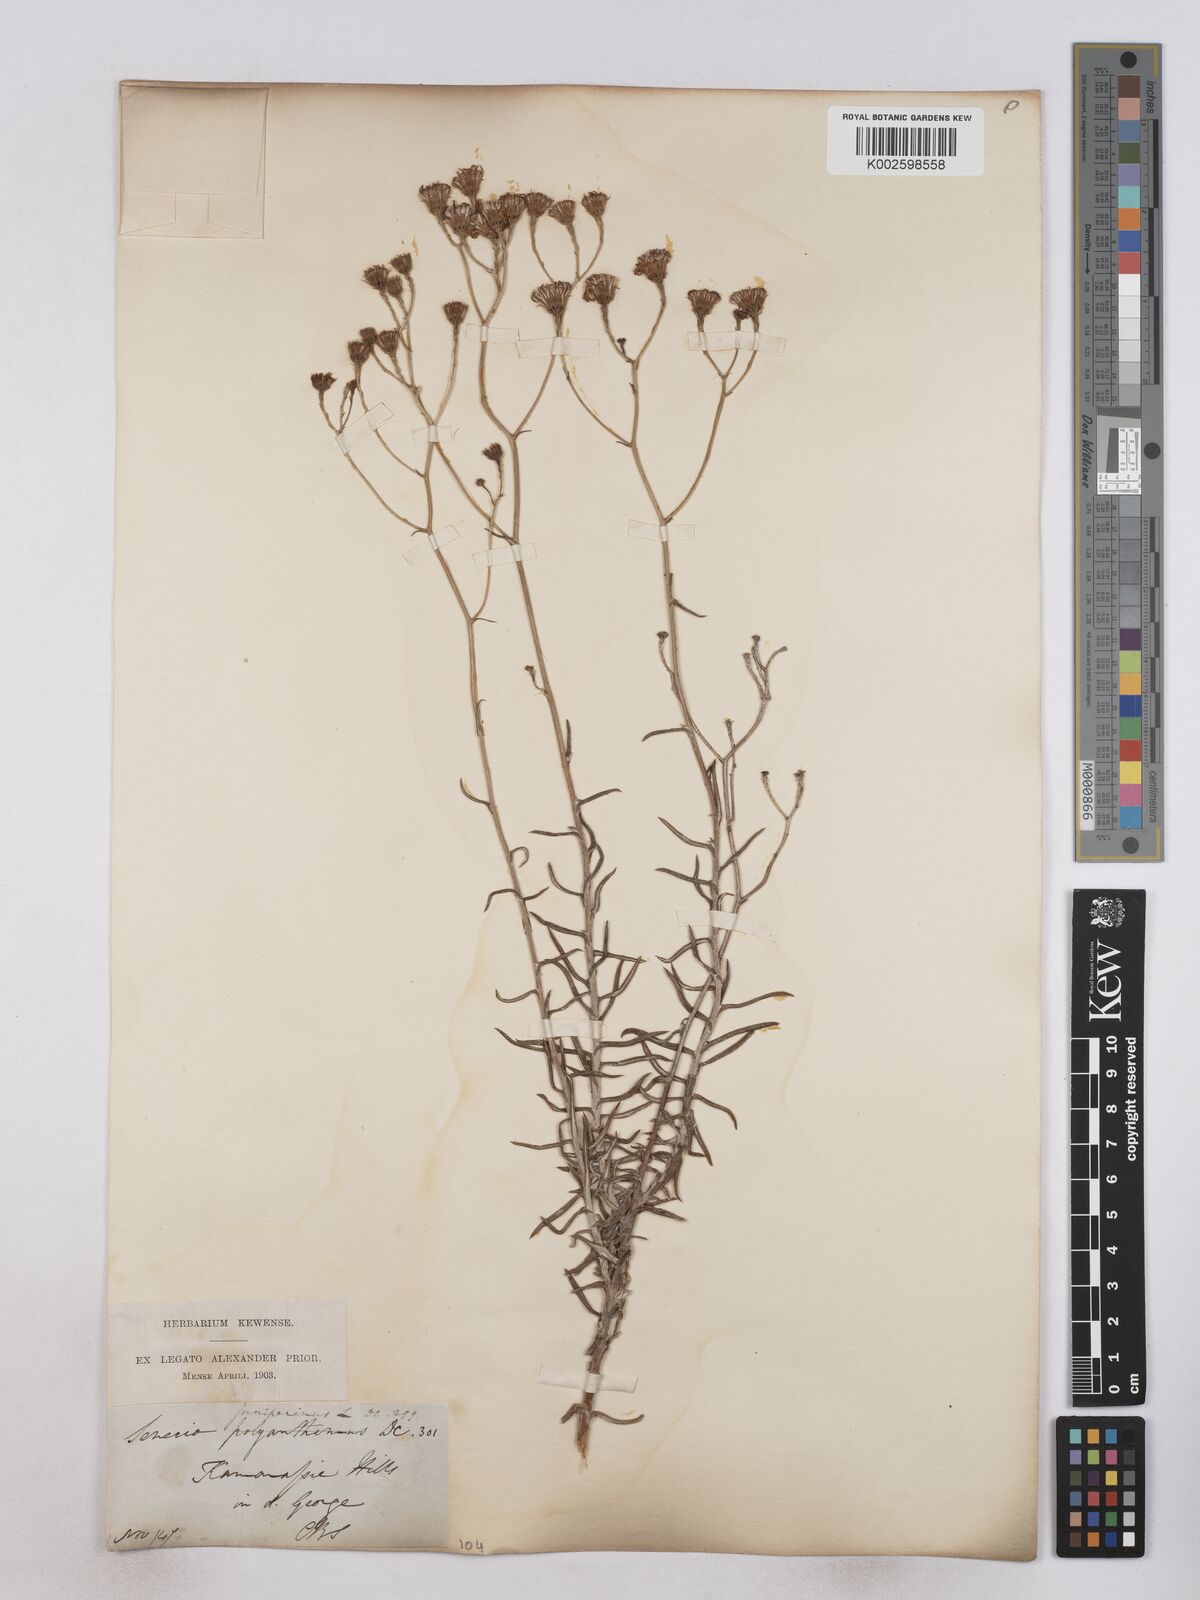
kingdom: Plantae
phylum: Tracheophyta
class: Magnoliopsida
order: Asterales
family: Asteraceae
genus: Senecio
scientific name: Senecio juniperinus
